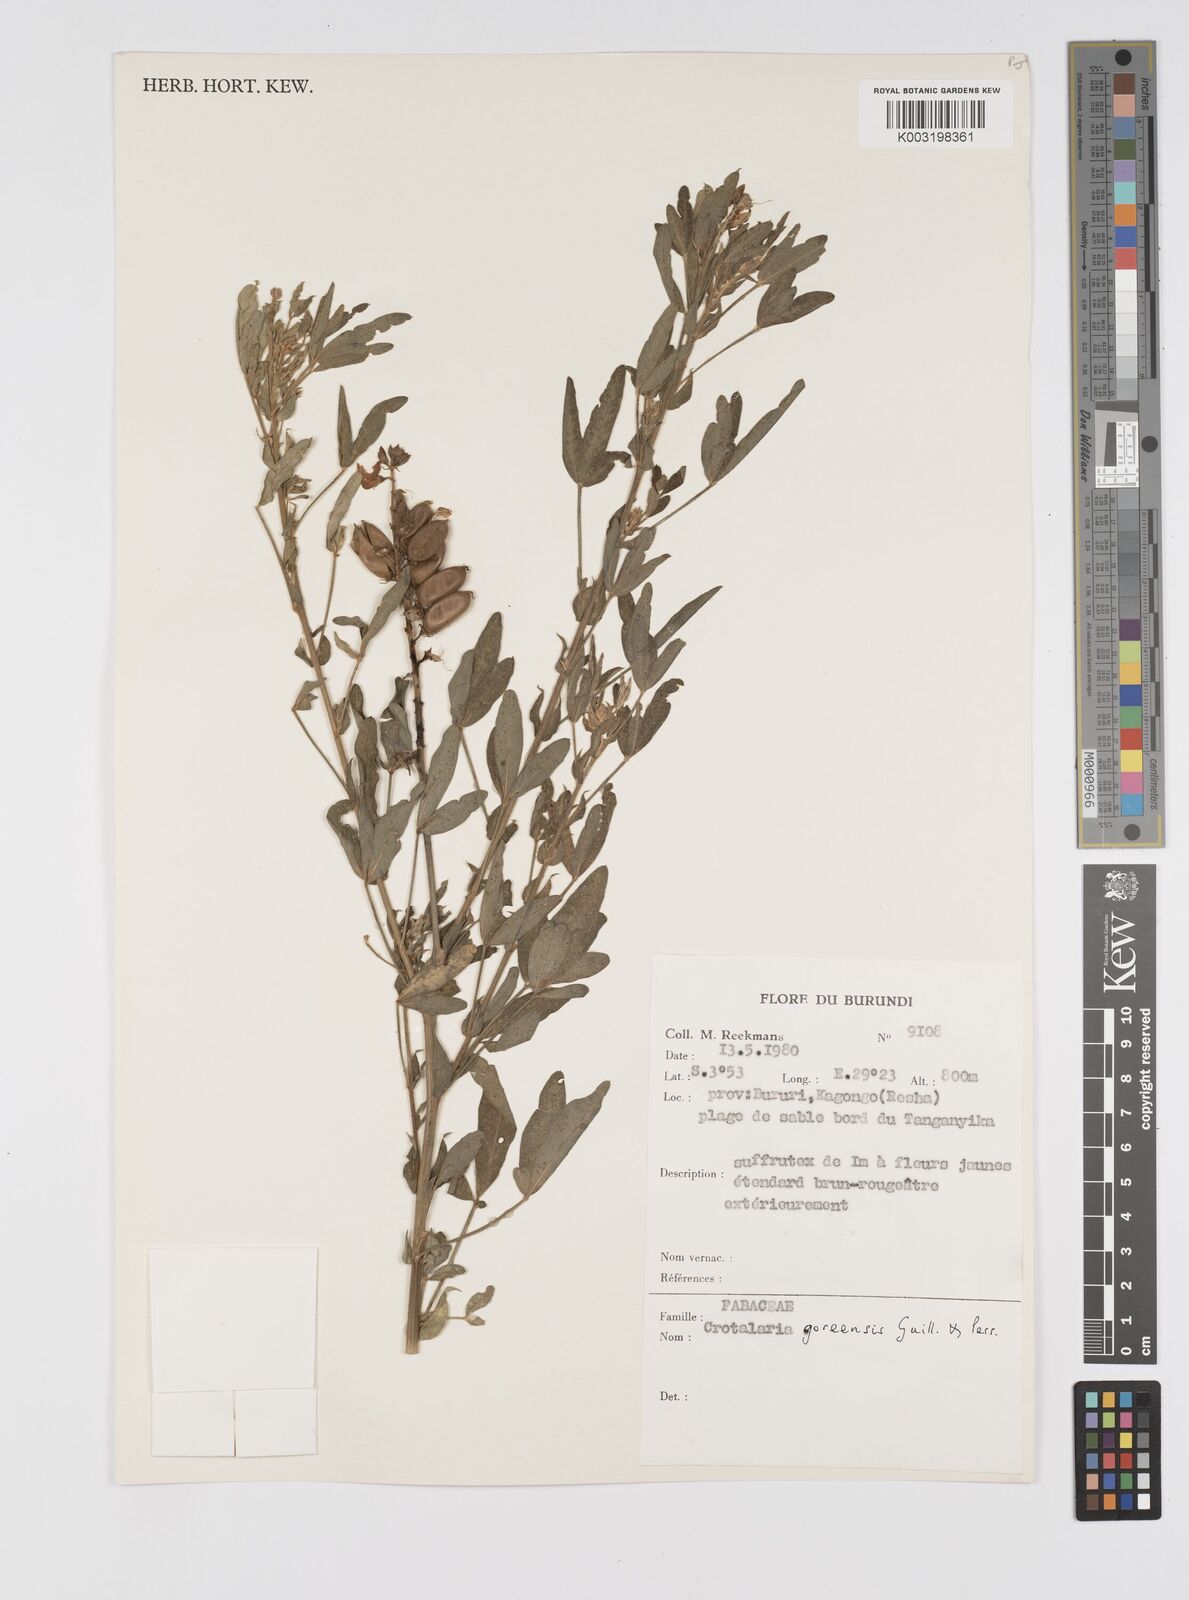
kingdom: Plantae
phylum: Tracheophyta
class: Magnoliopsida
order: Fabales
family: Fabaceae
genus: Crotalaria
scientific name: Crotalaria goreensis
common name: Gambia-pea
